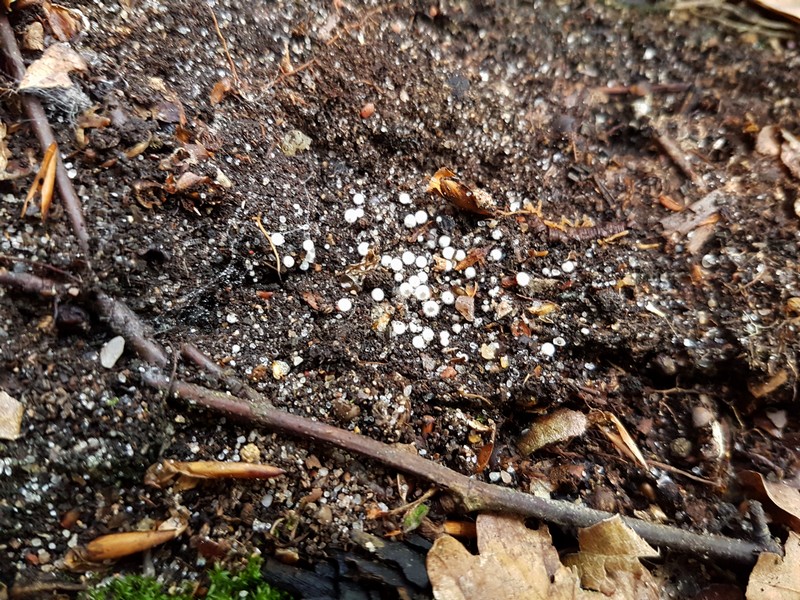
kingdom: Fungi
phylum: Ascomycota
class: Pezizomycetes
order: Pezizales
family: Pyronemataceae
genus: Leucoscypha
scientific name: Leucoscypha leucotricha
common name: smuk hvidbæger
